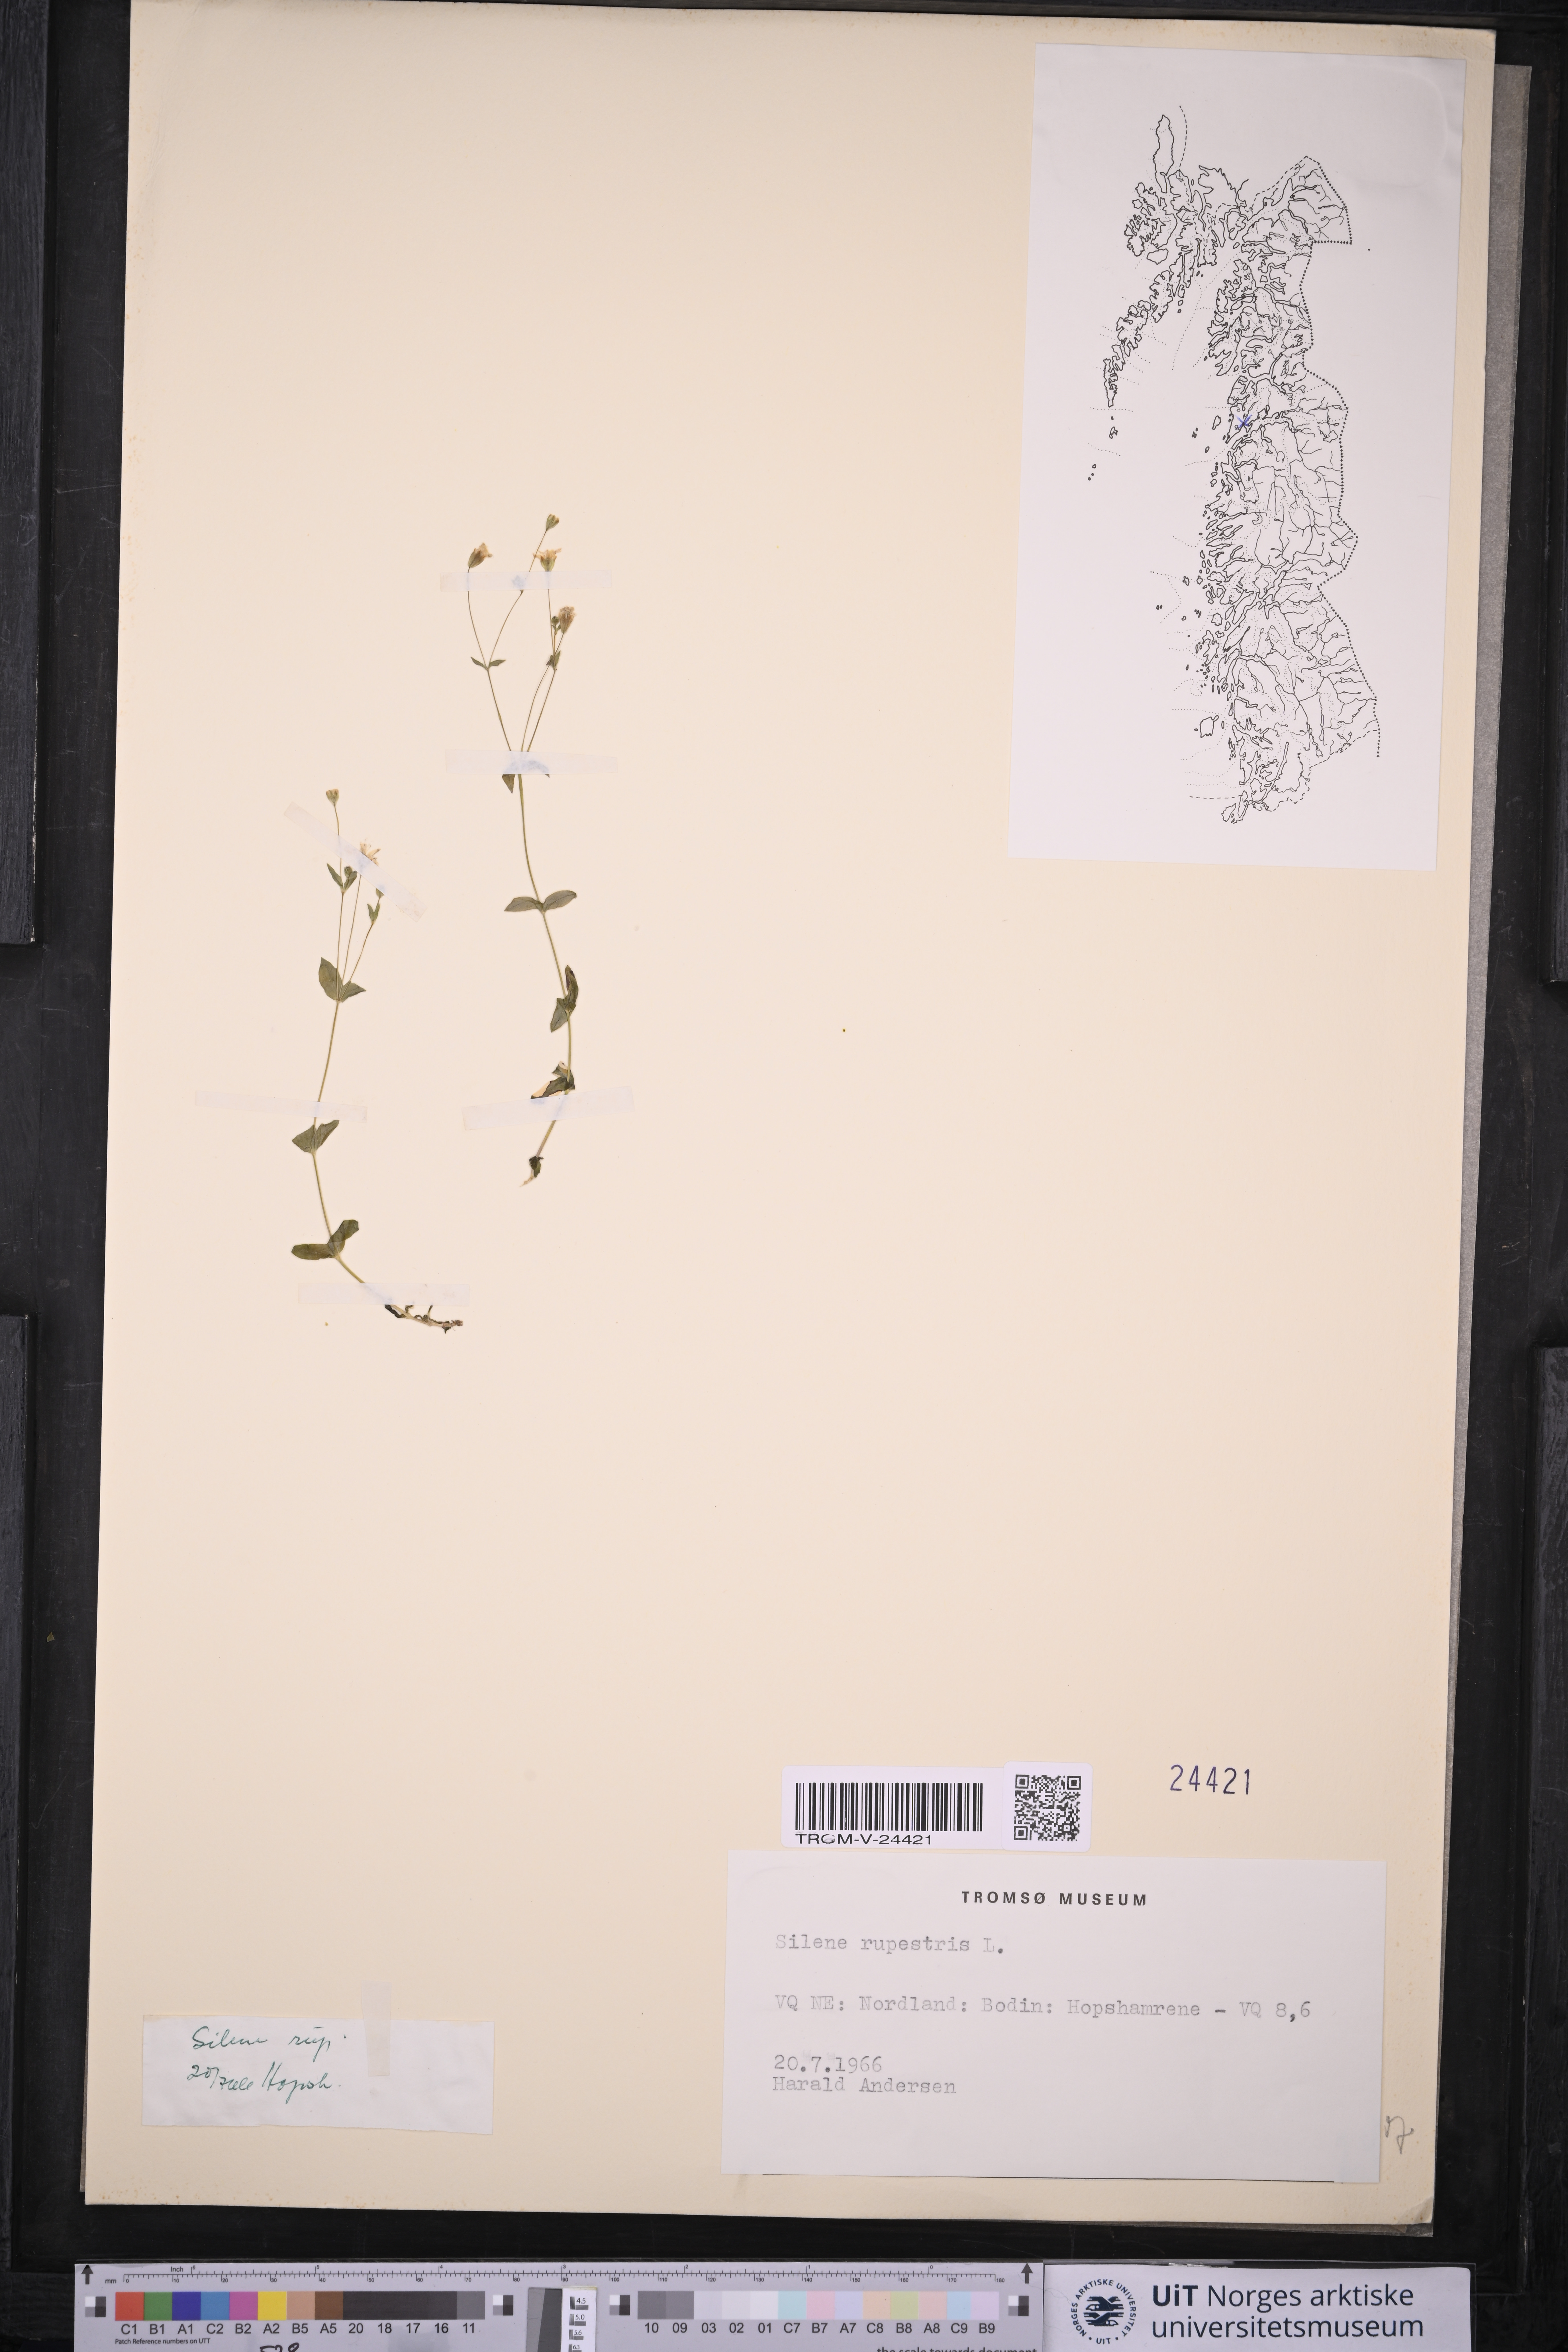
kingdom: Plantae
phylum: Tracheophyta
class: Magnoliopsida
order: Caryophyllales
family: Caryophyllaceae
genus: Atocion
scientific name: Atocion rupestre
